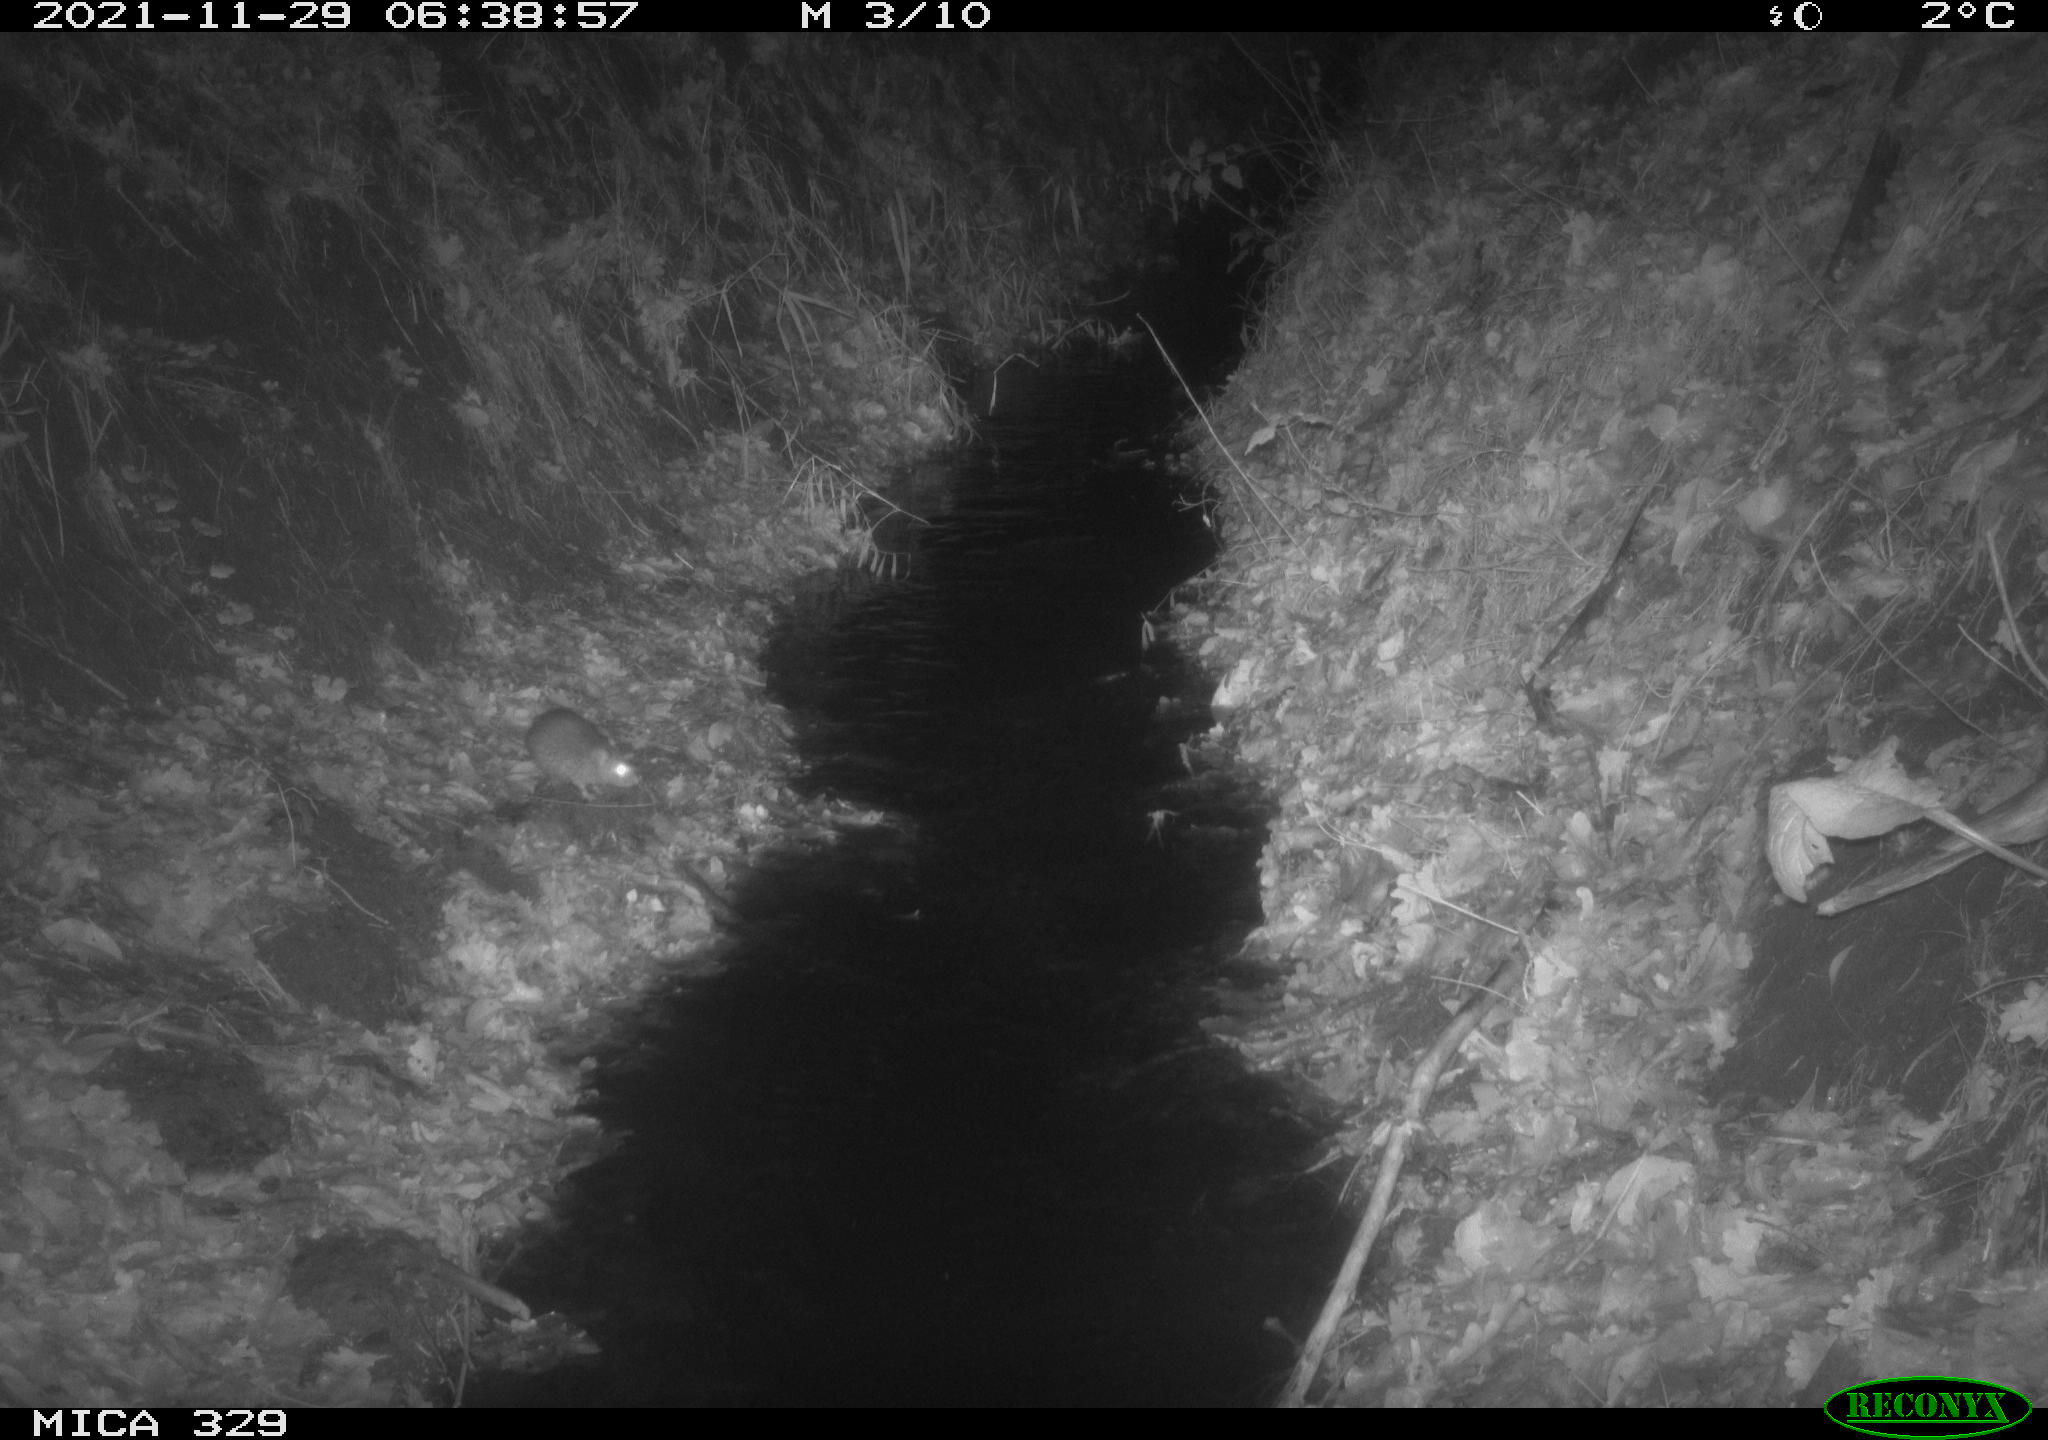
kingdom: Animalia
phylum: Chordata
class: Mammalia
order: Rodentia
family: Muridae
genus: Rattus
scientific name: Rattus norvegicus
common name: Brown rat
